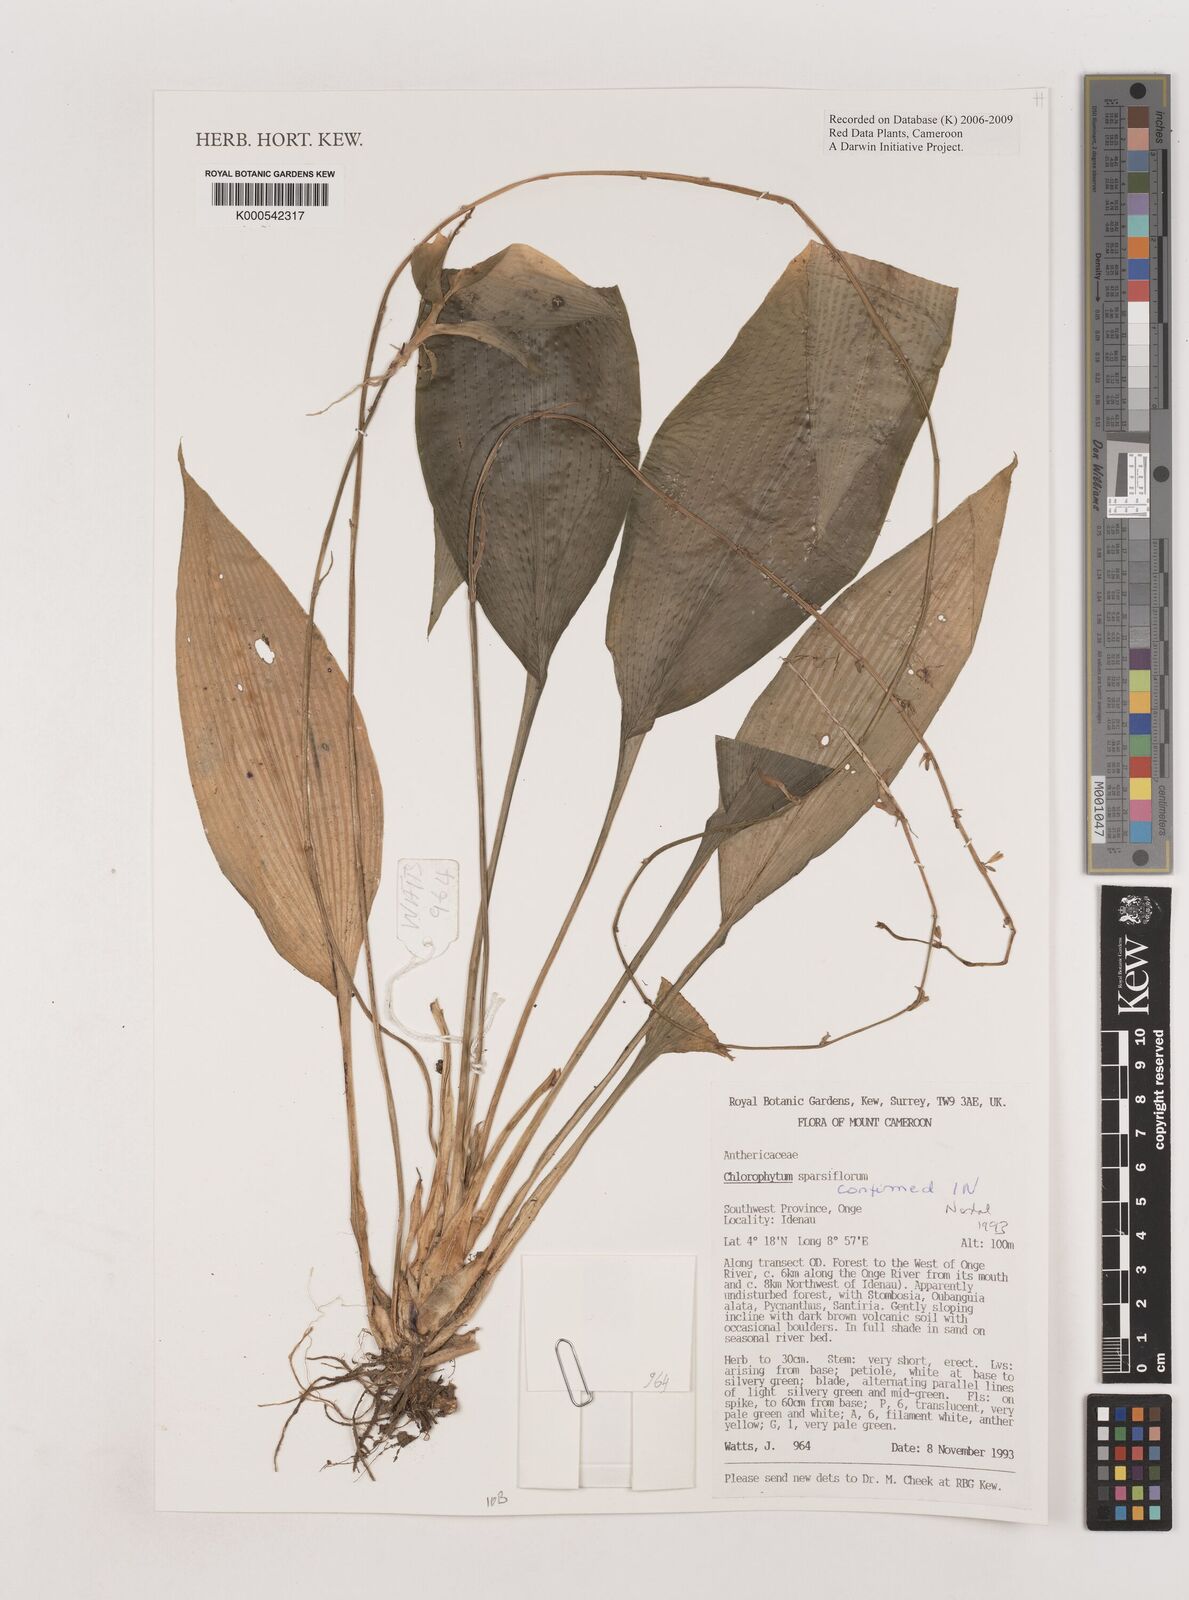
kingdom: Plantae
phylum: Tracheophyta
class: Liliopsida
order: Asparagales
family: Asparagaceae
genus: Chlorophytum
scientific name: Chlorophytum sparsiflorum
